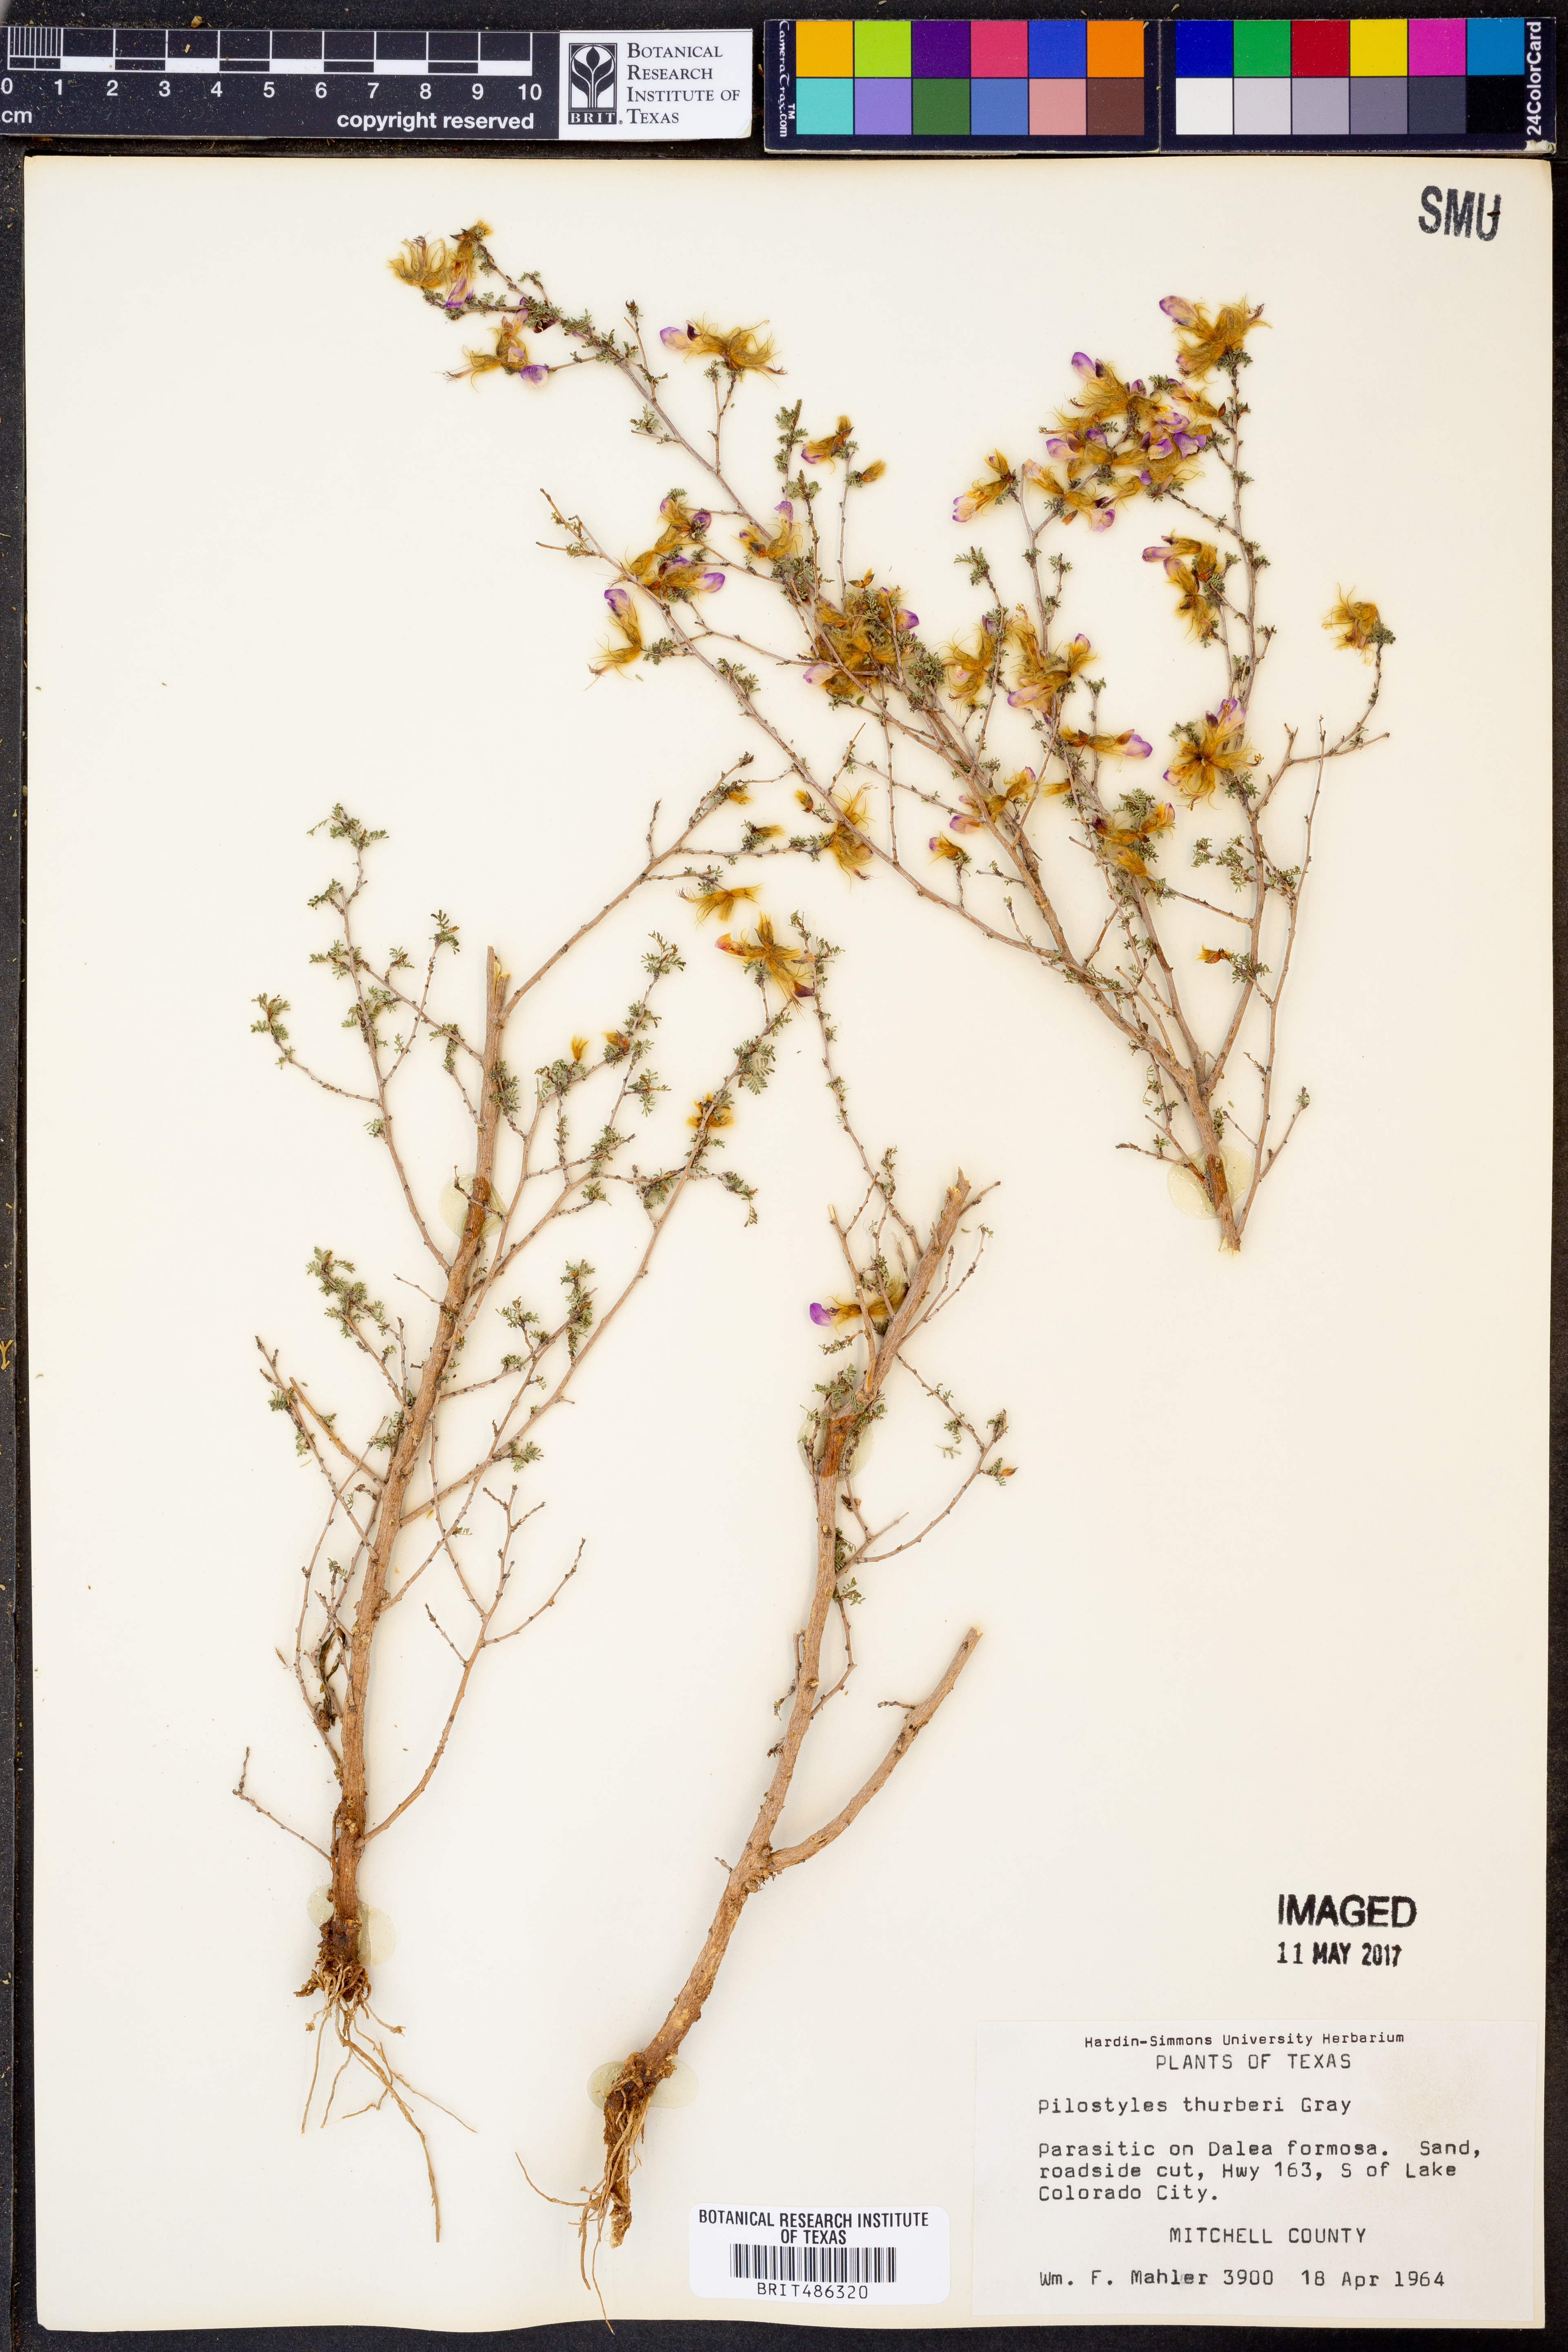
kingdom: Plantae
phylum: Tracheophyta
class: Magnoliopsida
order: Cucurbitales
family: Apodanthaceae
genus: Pilostyles
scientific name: Pilostyles thurberi
